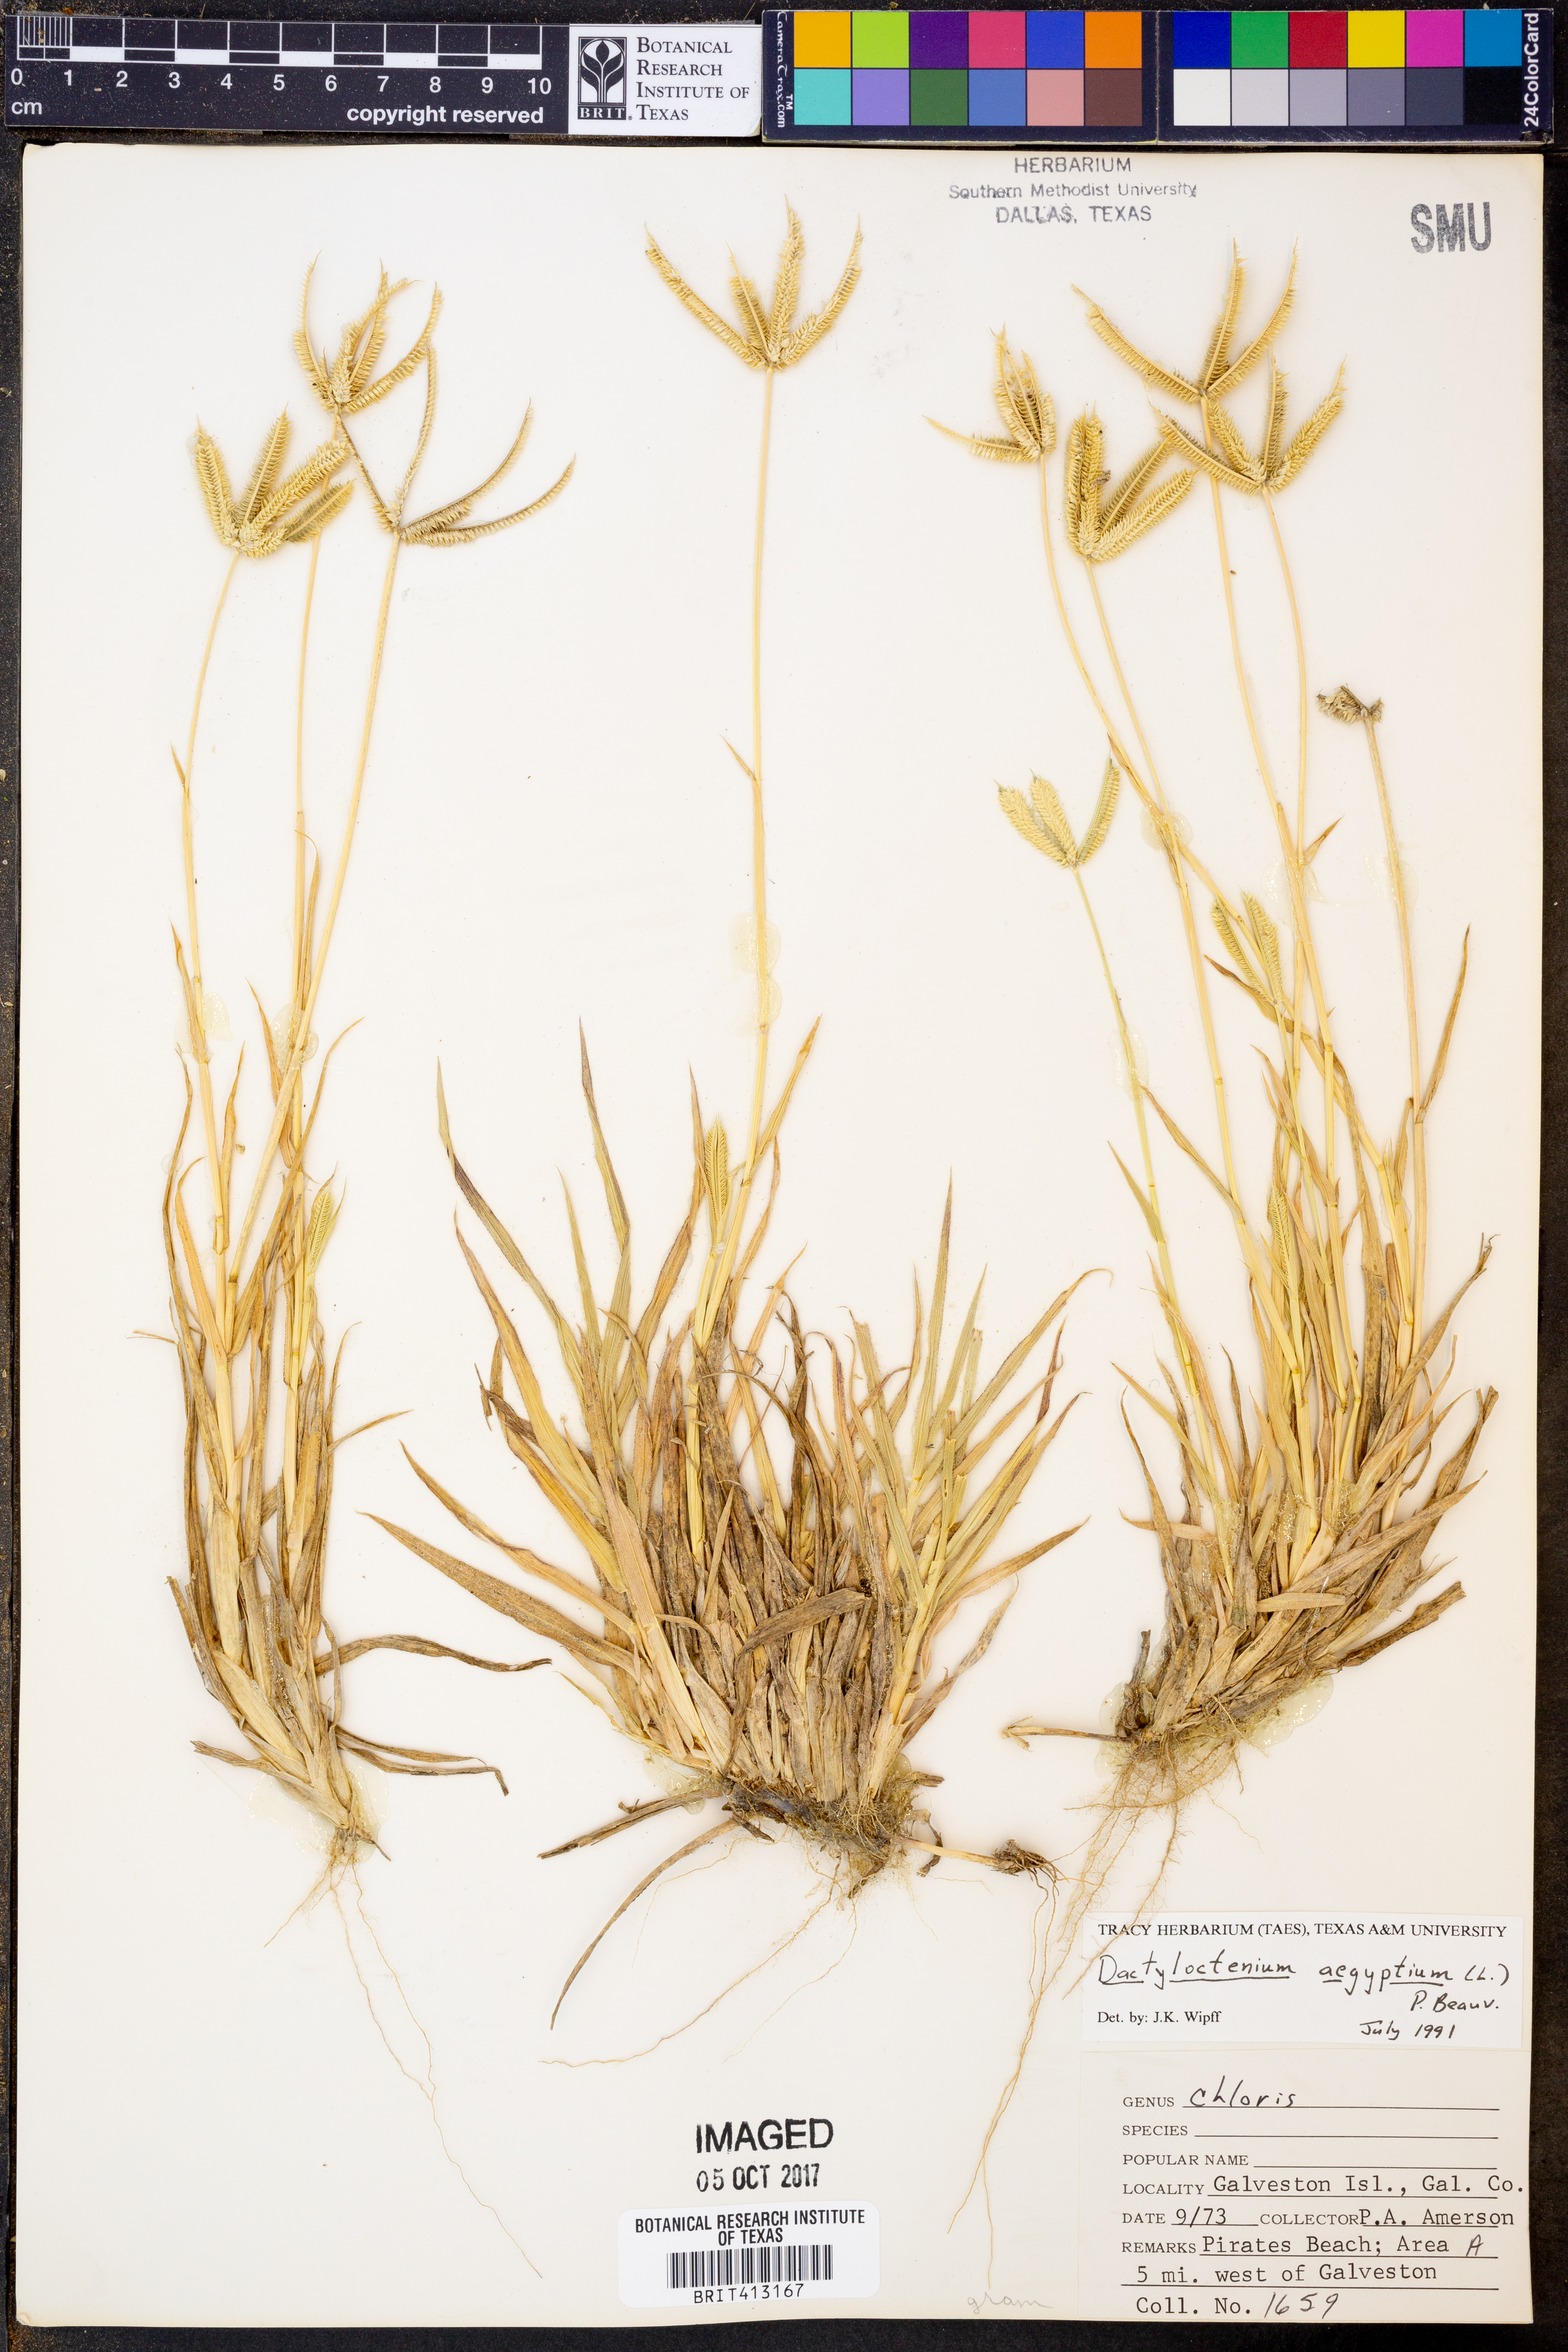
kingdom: Plantae
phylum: Tracheophyta
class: Liliopsida
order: Poales
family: Poaceae
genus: Dactyloctenium
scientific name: Dactyloctenium aegyptium
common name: Egyptian grass
